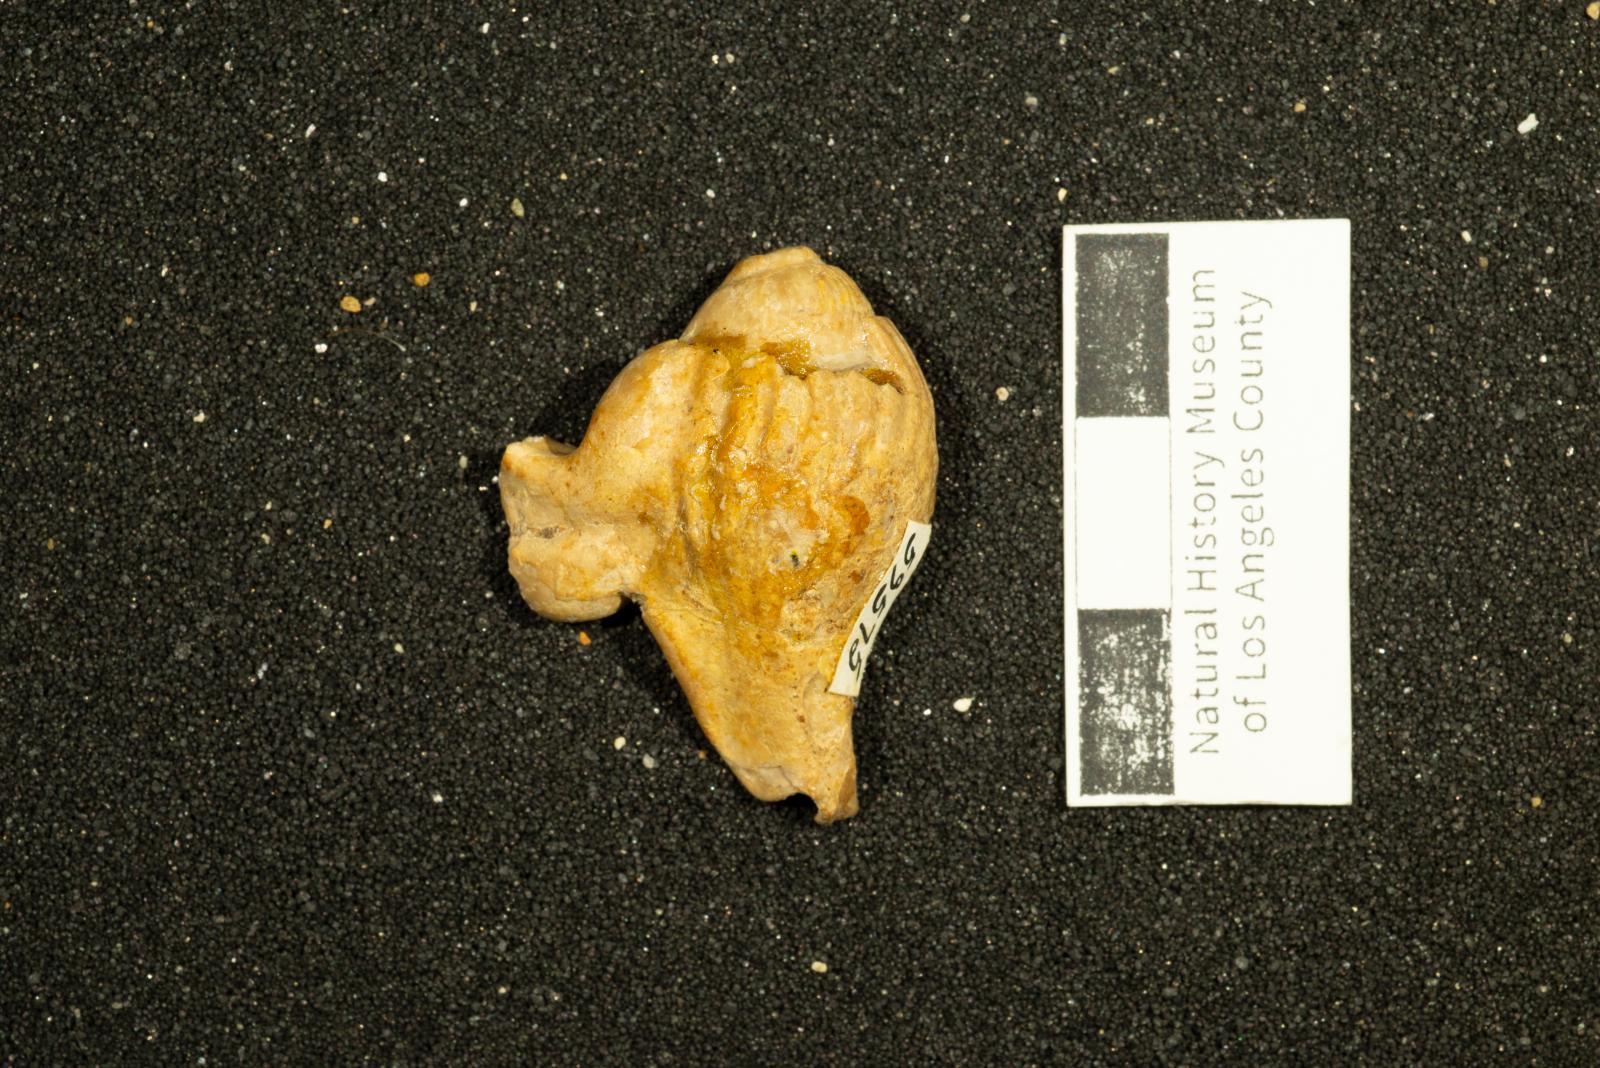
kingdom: Animalia
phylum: Mollusca
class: Gastropoda
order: Littorinimorpha
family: Aporrhaidae
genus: Gymnarus
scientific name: Gymnarus Pugnellus manubriatus
